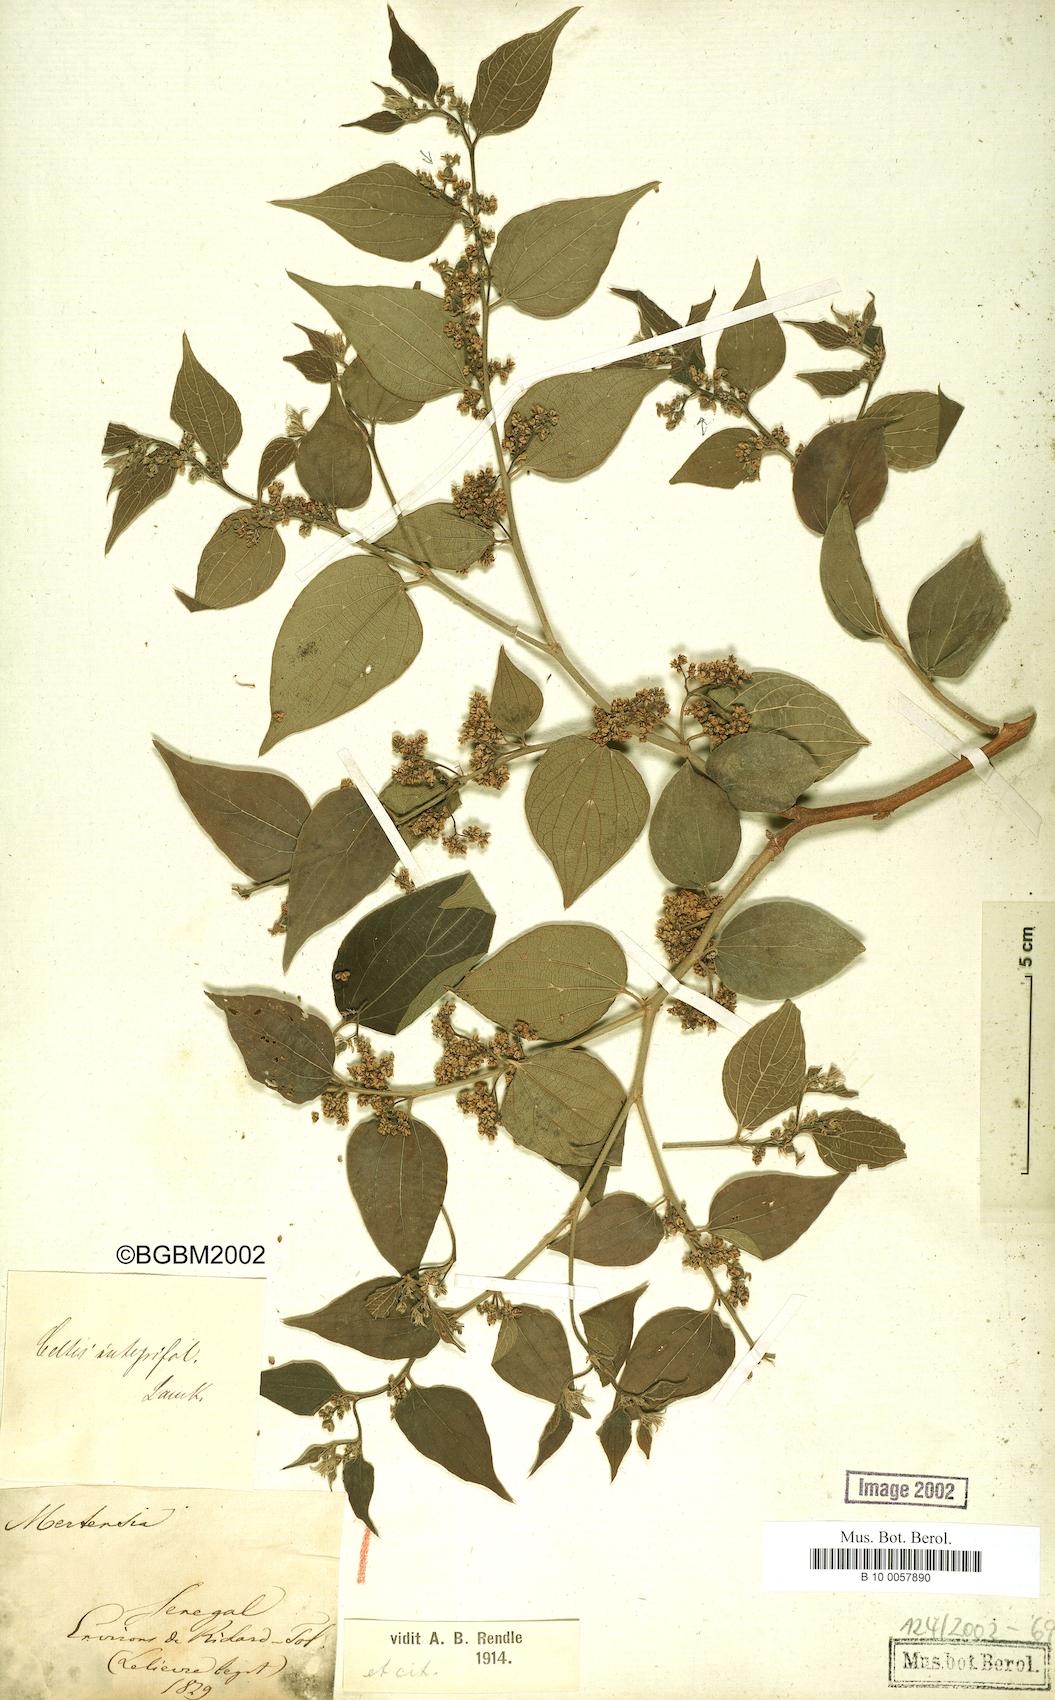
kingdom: Plantae
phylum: Tracheophyta
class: Magnoliopsida
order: Rosales
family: Cannabaceae
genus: Celtis
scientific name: Celtis toka
